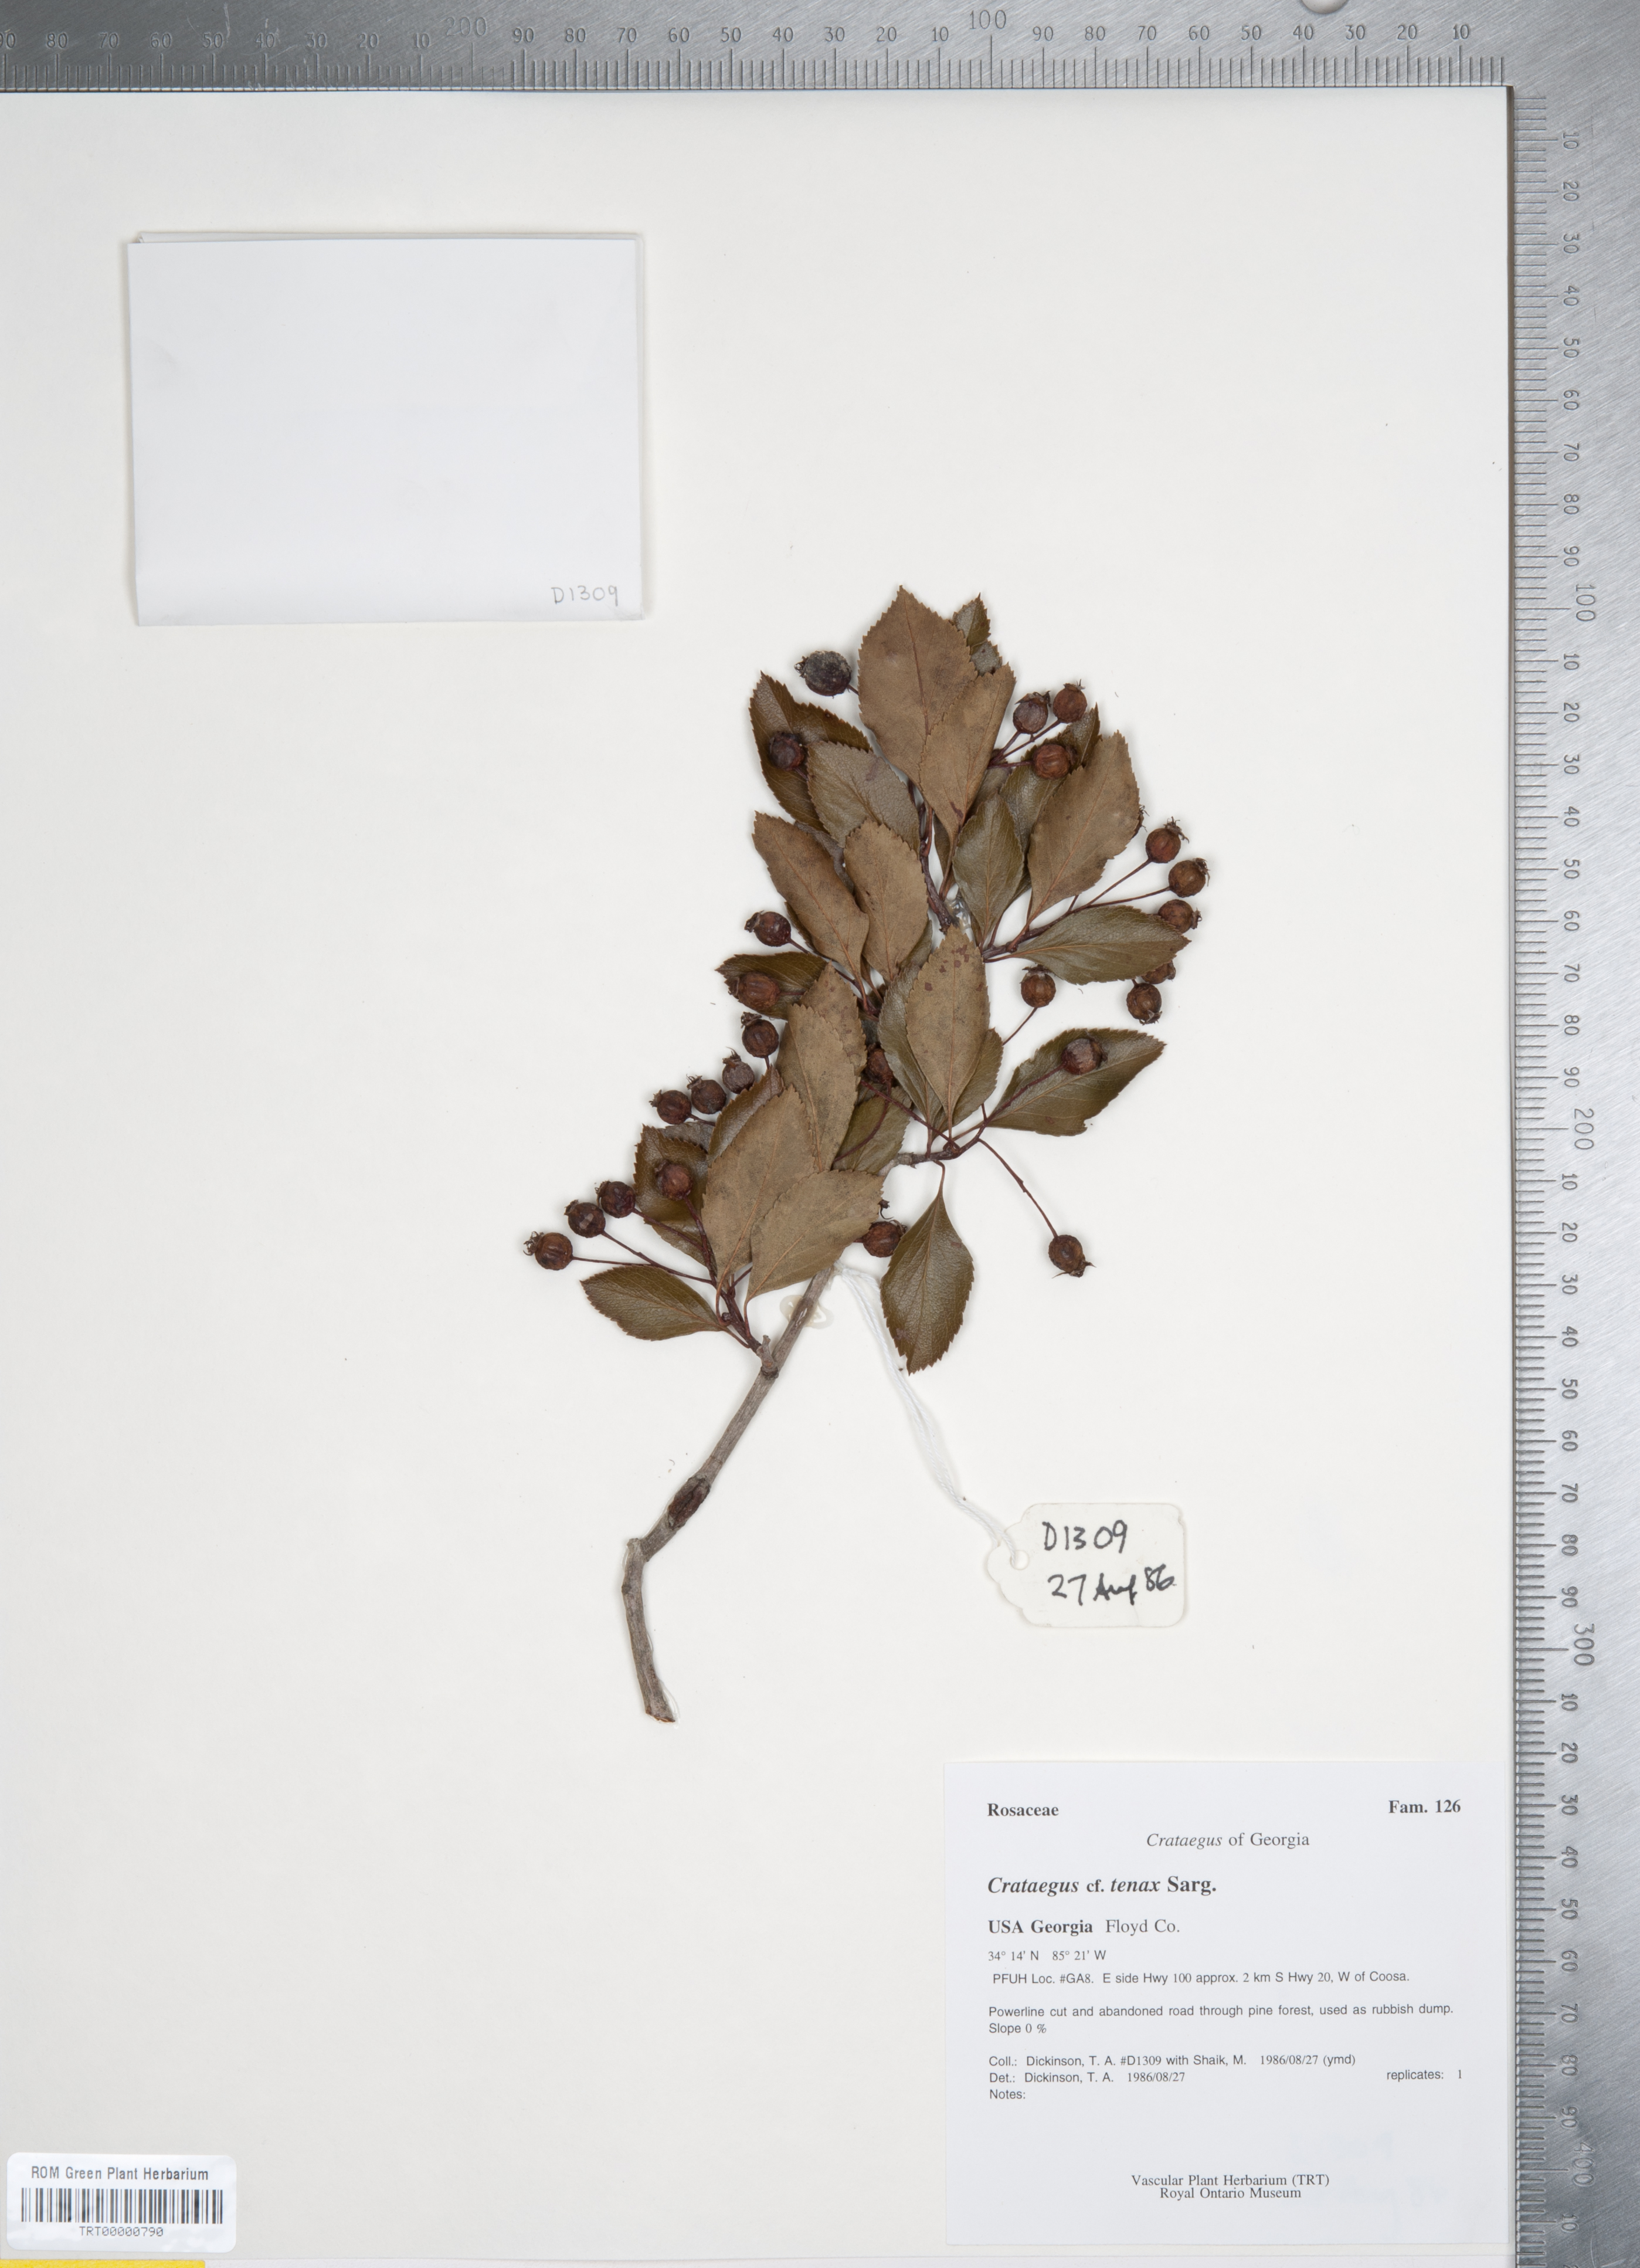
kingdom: Plantae
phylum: Tracheophyta
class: Magnoliopsida
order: Rosales
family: Rosaceae
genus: Crataegus
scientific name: Crataegus crus-galli
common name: Cockspurthorn
